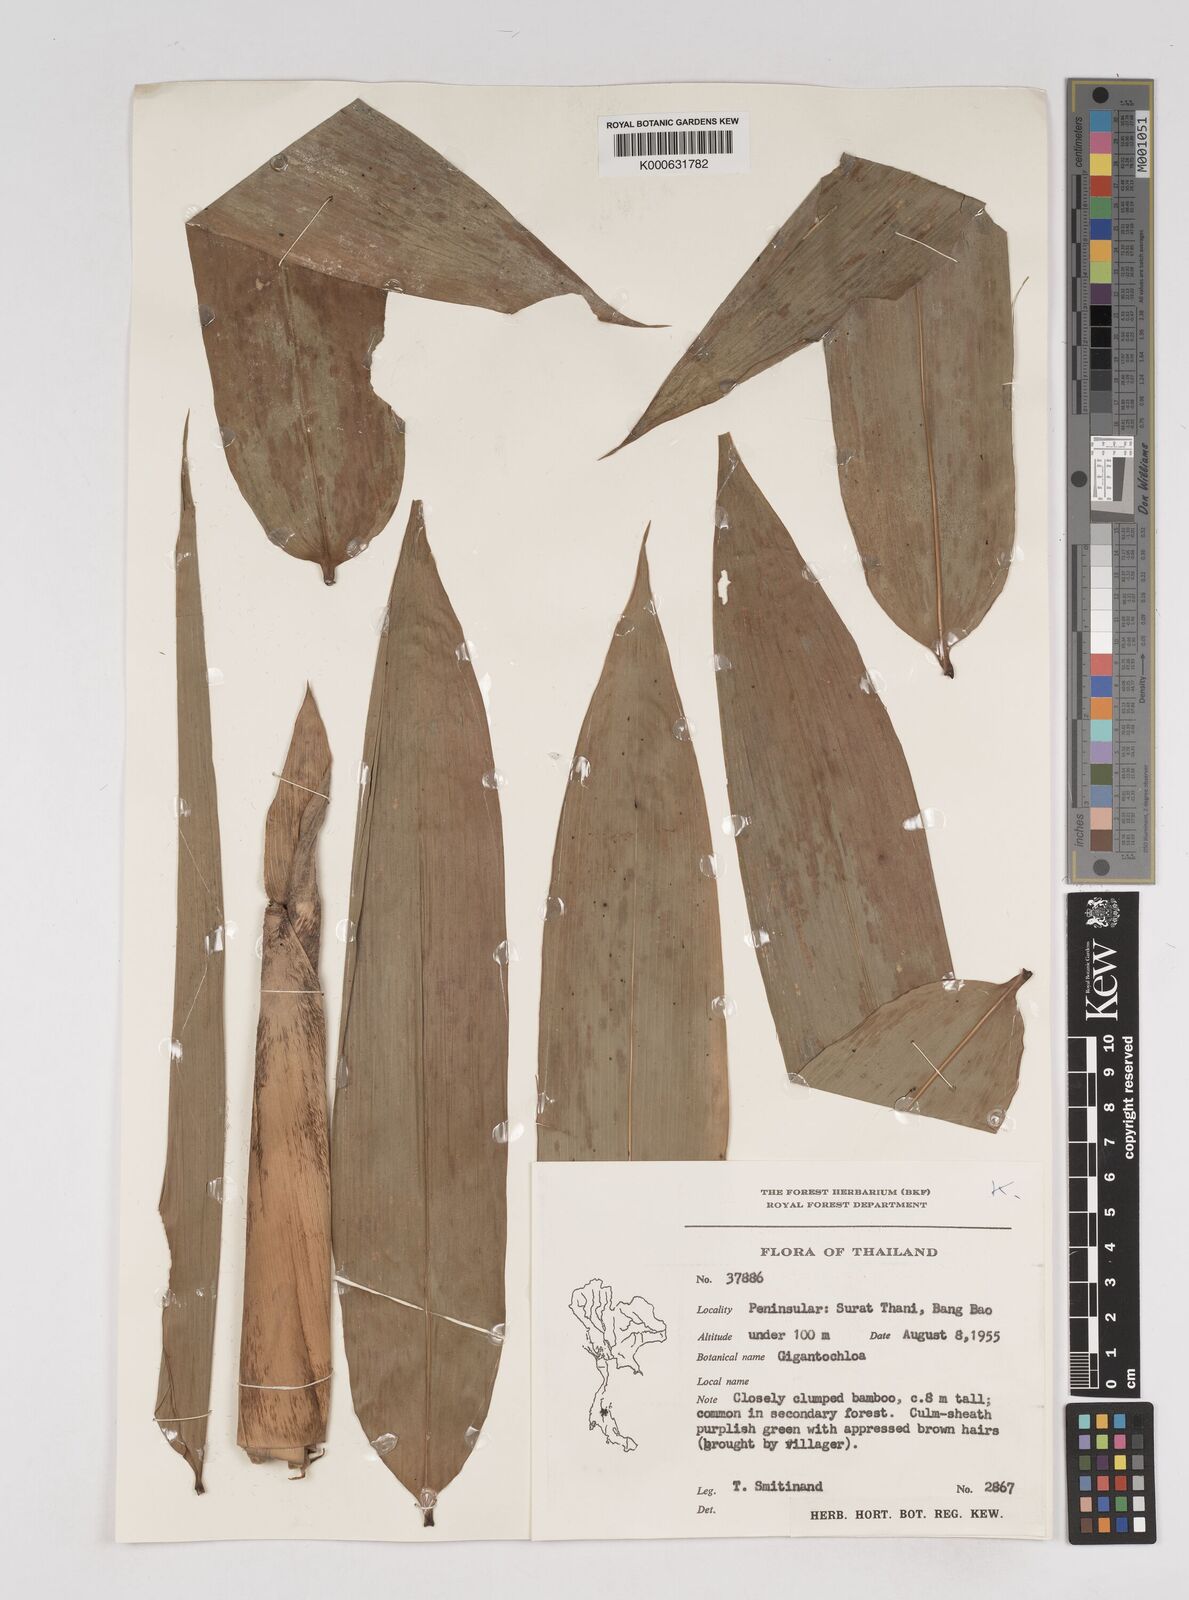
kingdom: Plantae
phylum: Tracheophyta
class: Liliopsida
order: Poales
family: Poaceae
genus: Gigantochloa
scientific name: Gigantochloa
